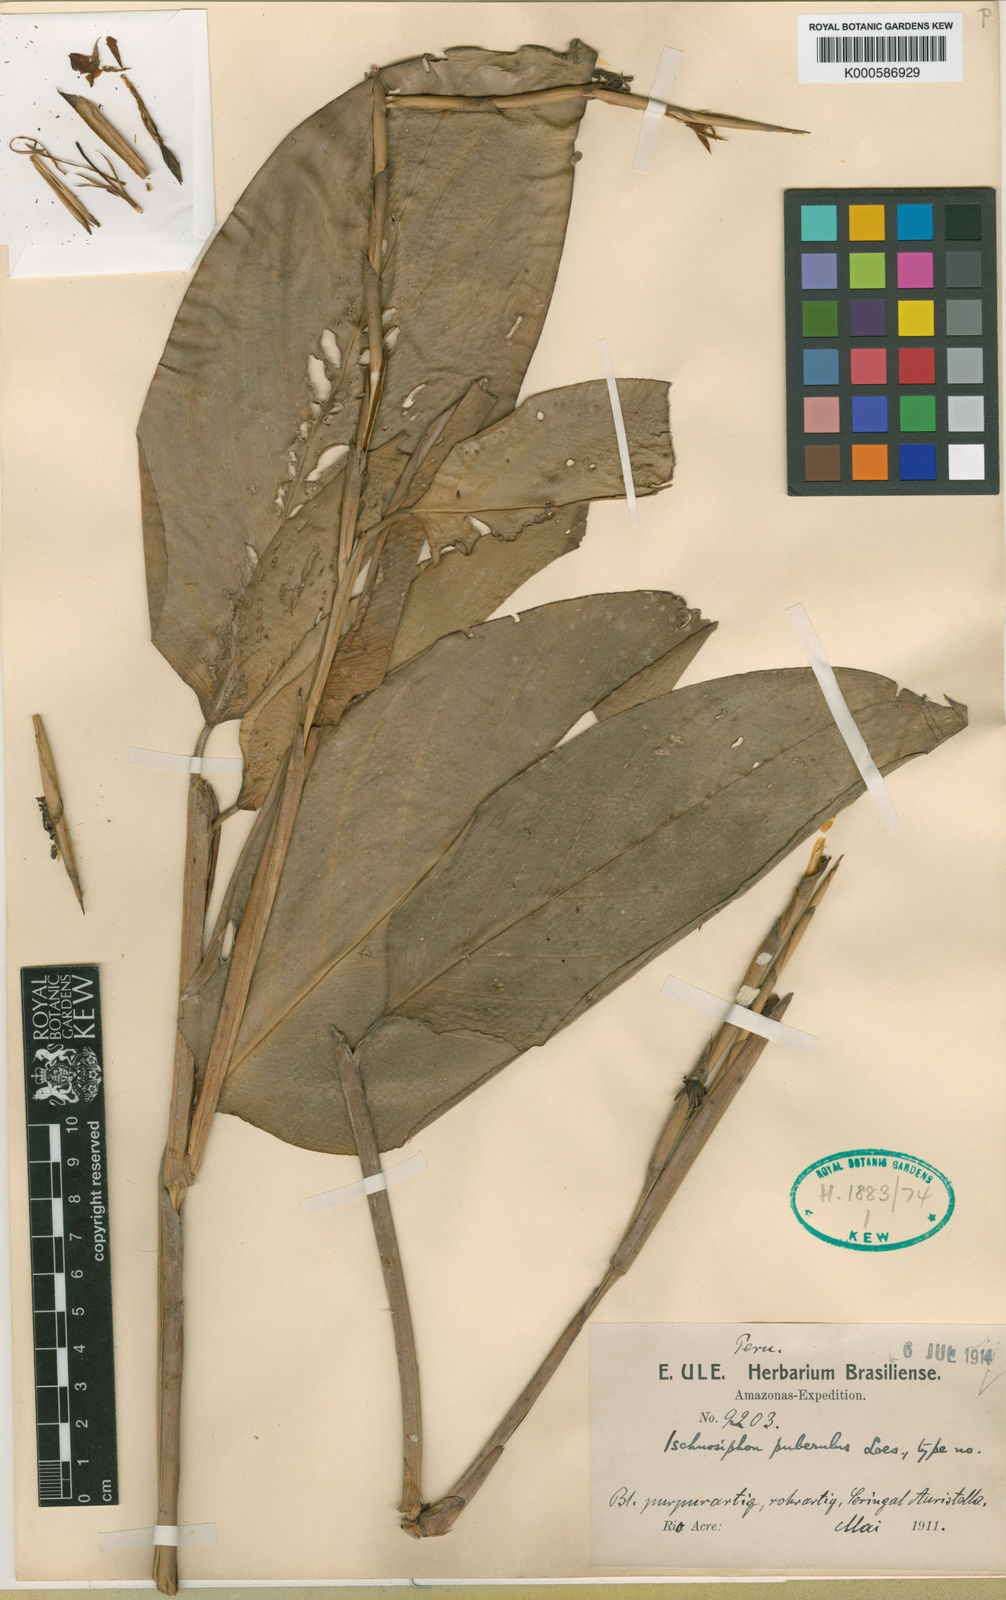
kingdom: Plantae
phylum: Tracheophyta
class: Liliopsida
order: Zingiberales
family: Marantaceae
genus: Ischnosiphon
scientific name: Ischnosiphon puberulus
